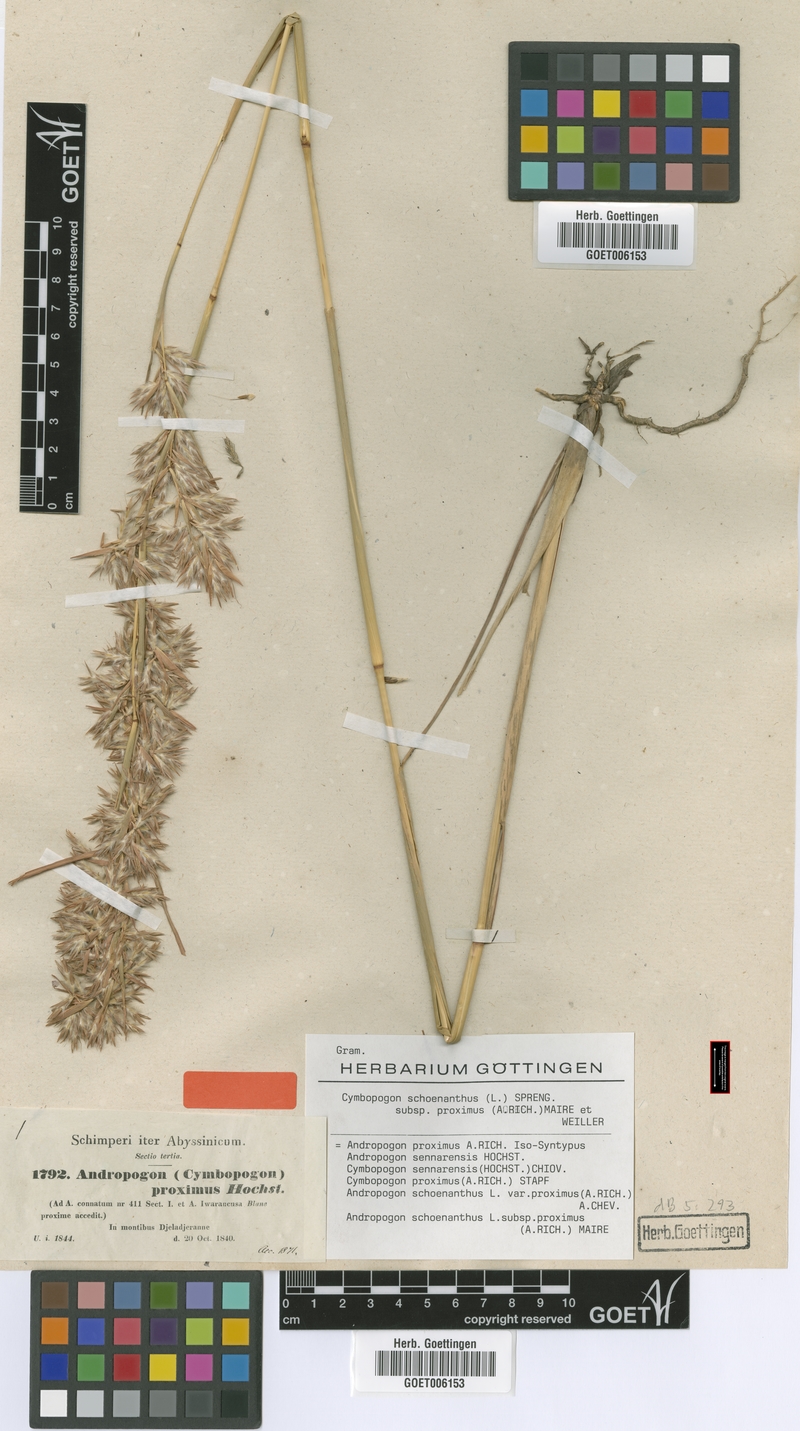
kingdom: Plantae
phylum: Tracheophyta
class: Liliopsida
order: Poales
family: Poaceae
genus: Cymbopogon
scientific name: Cymbopogon schoenanthus
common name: Geranium grass
